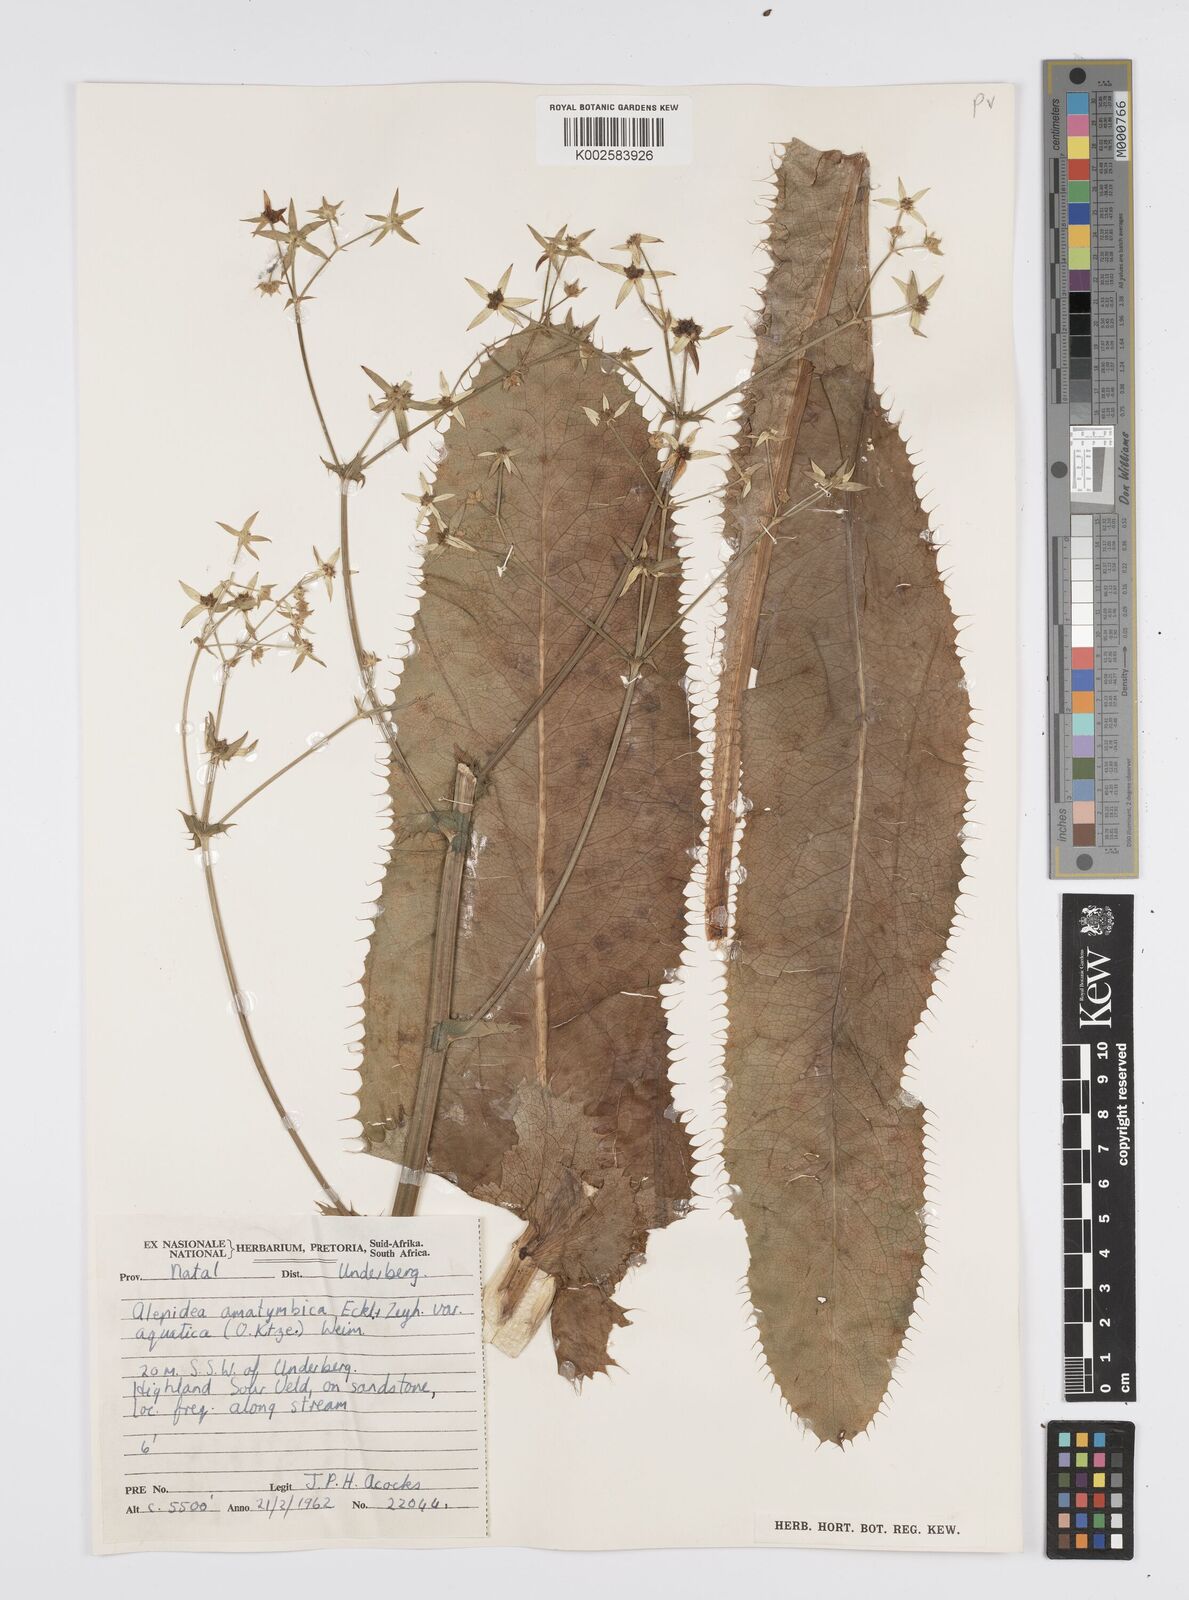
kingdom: Plantae
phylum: Tracheophyta
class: Magnoliopsida
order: Apiales
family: Apiaceae
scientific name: Apiaceae
